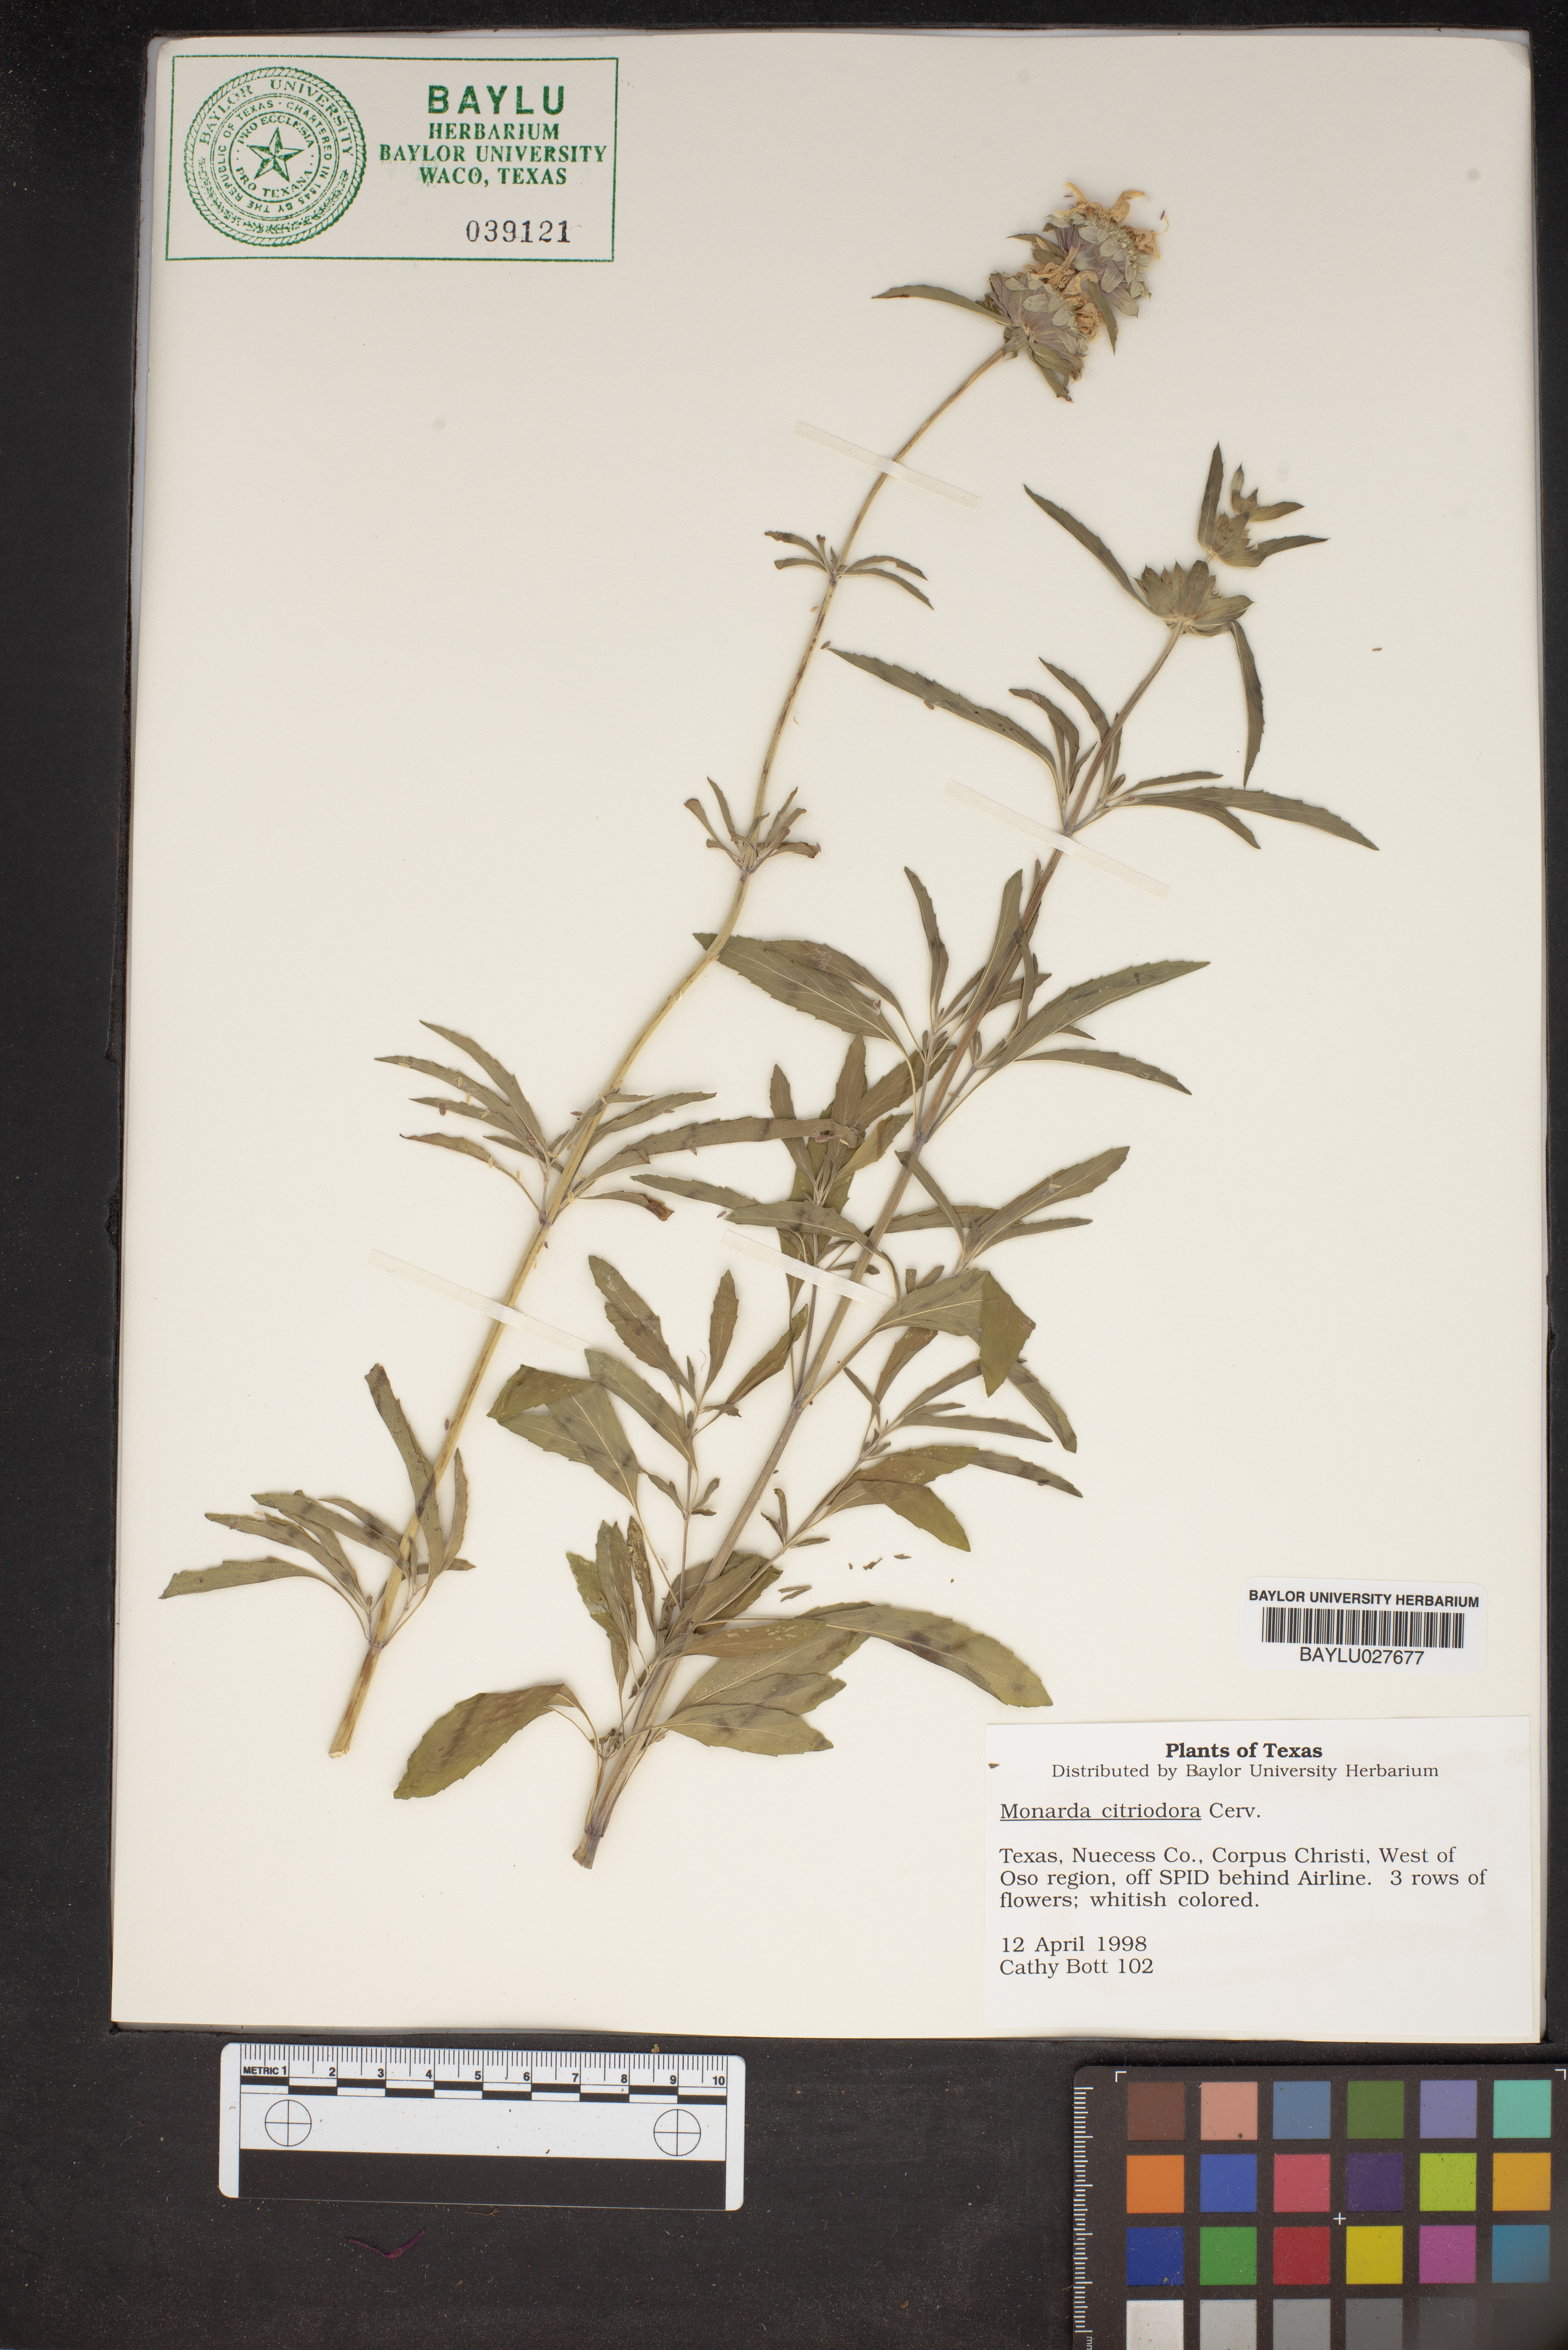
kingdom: Plantae
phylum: Tracheophyta
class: Magnoliopsida
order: Lamiales
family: Lamiaceae
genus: Monarda
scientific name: Monarda citriodora
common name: Lemon beebalm
